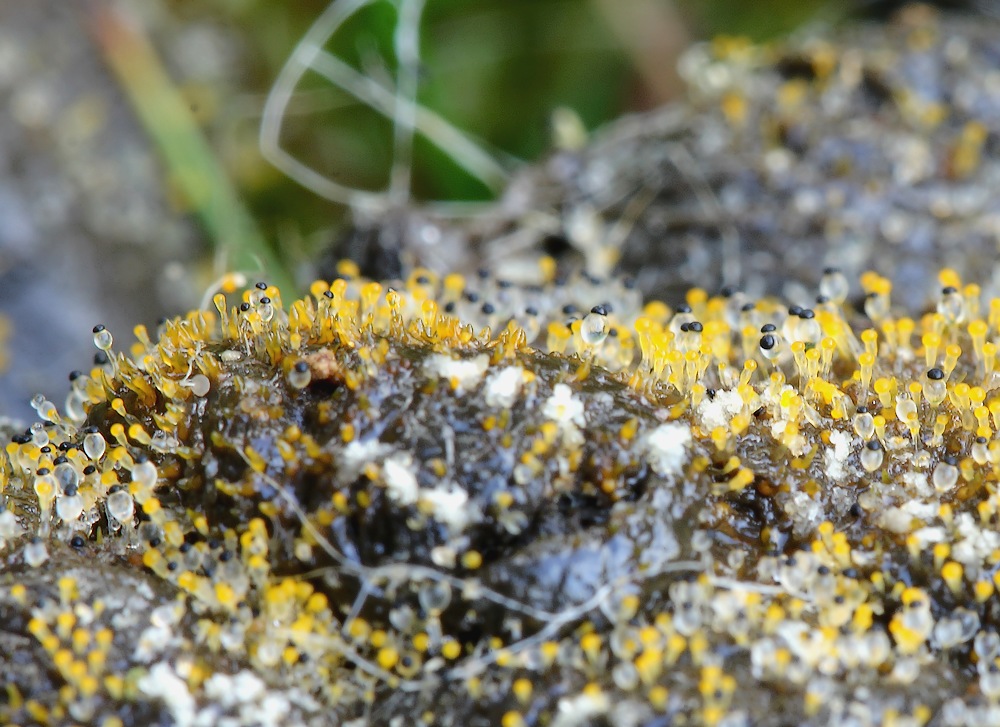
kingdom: Fungi
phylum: Mucoromycota
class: Mucoromycetes
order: Mucorales
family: Pilobolaceae
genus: Pilobolus
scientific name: Pilobolus
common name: boldkaster
